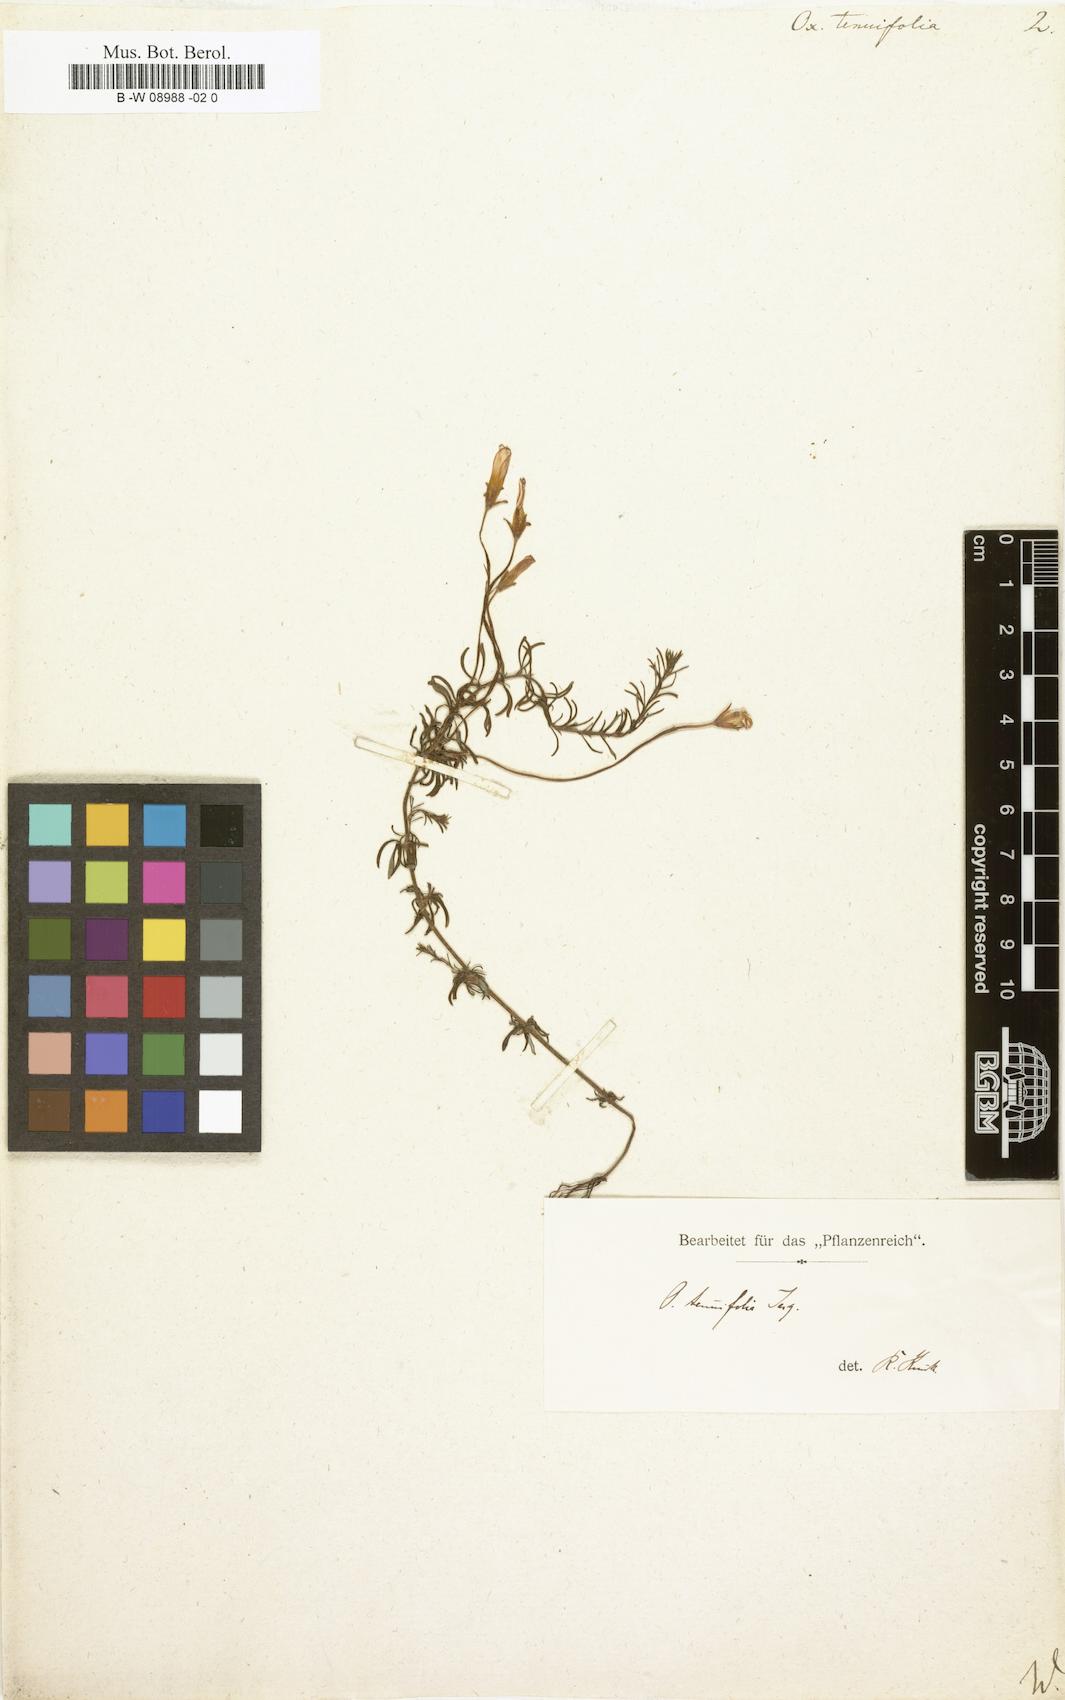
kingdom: Plantae
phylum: Tracheophyta
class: Magnoliopsida
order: Oxalidales
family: Oxalidaceae
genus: Oxalis
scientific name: Oxalis tenuifolia
